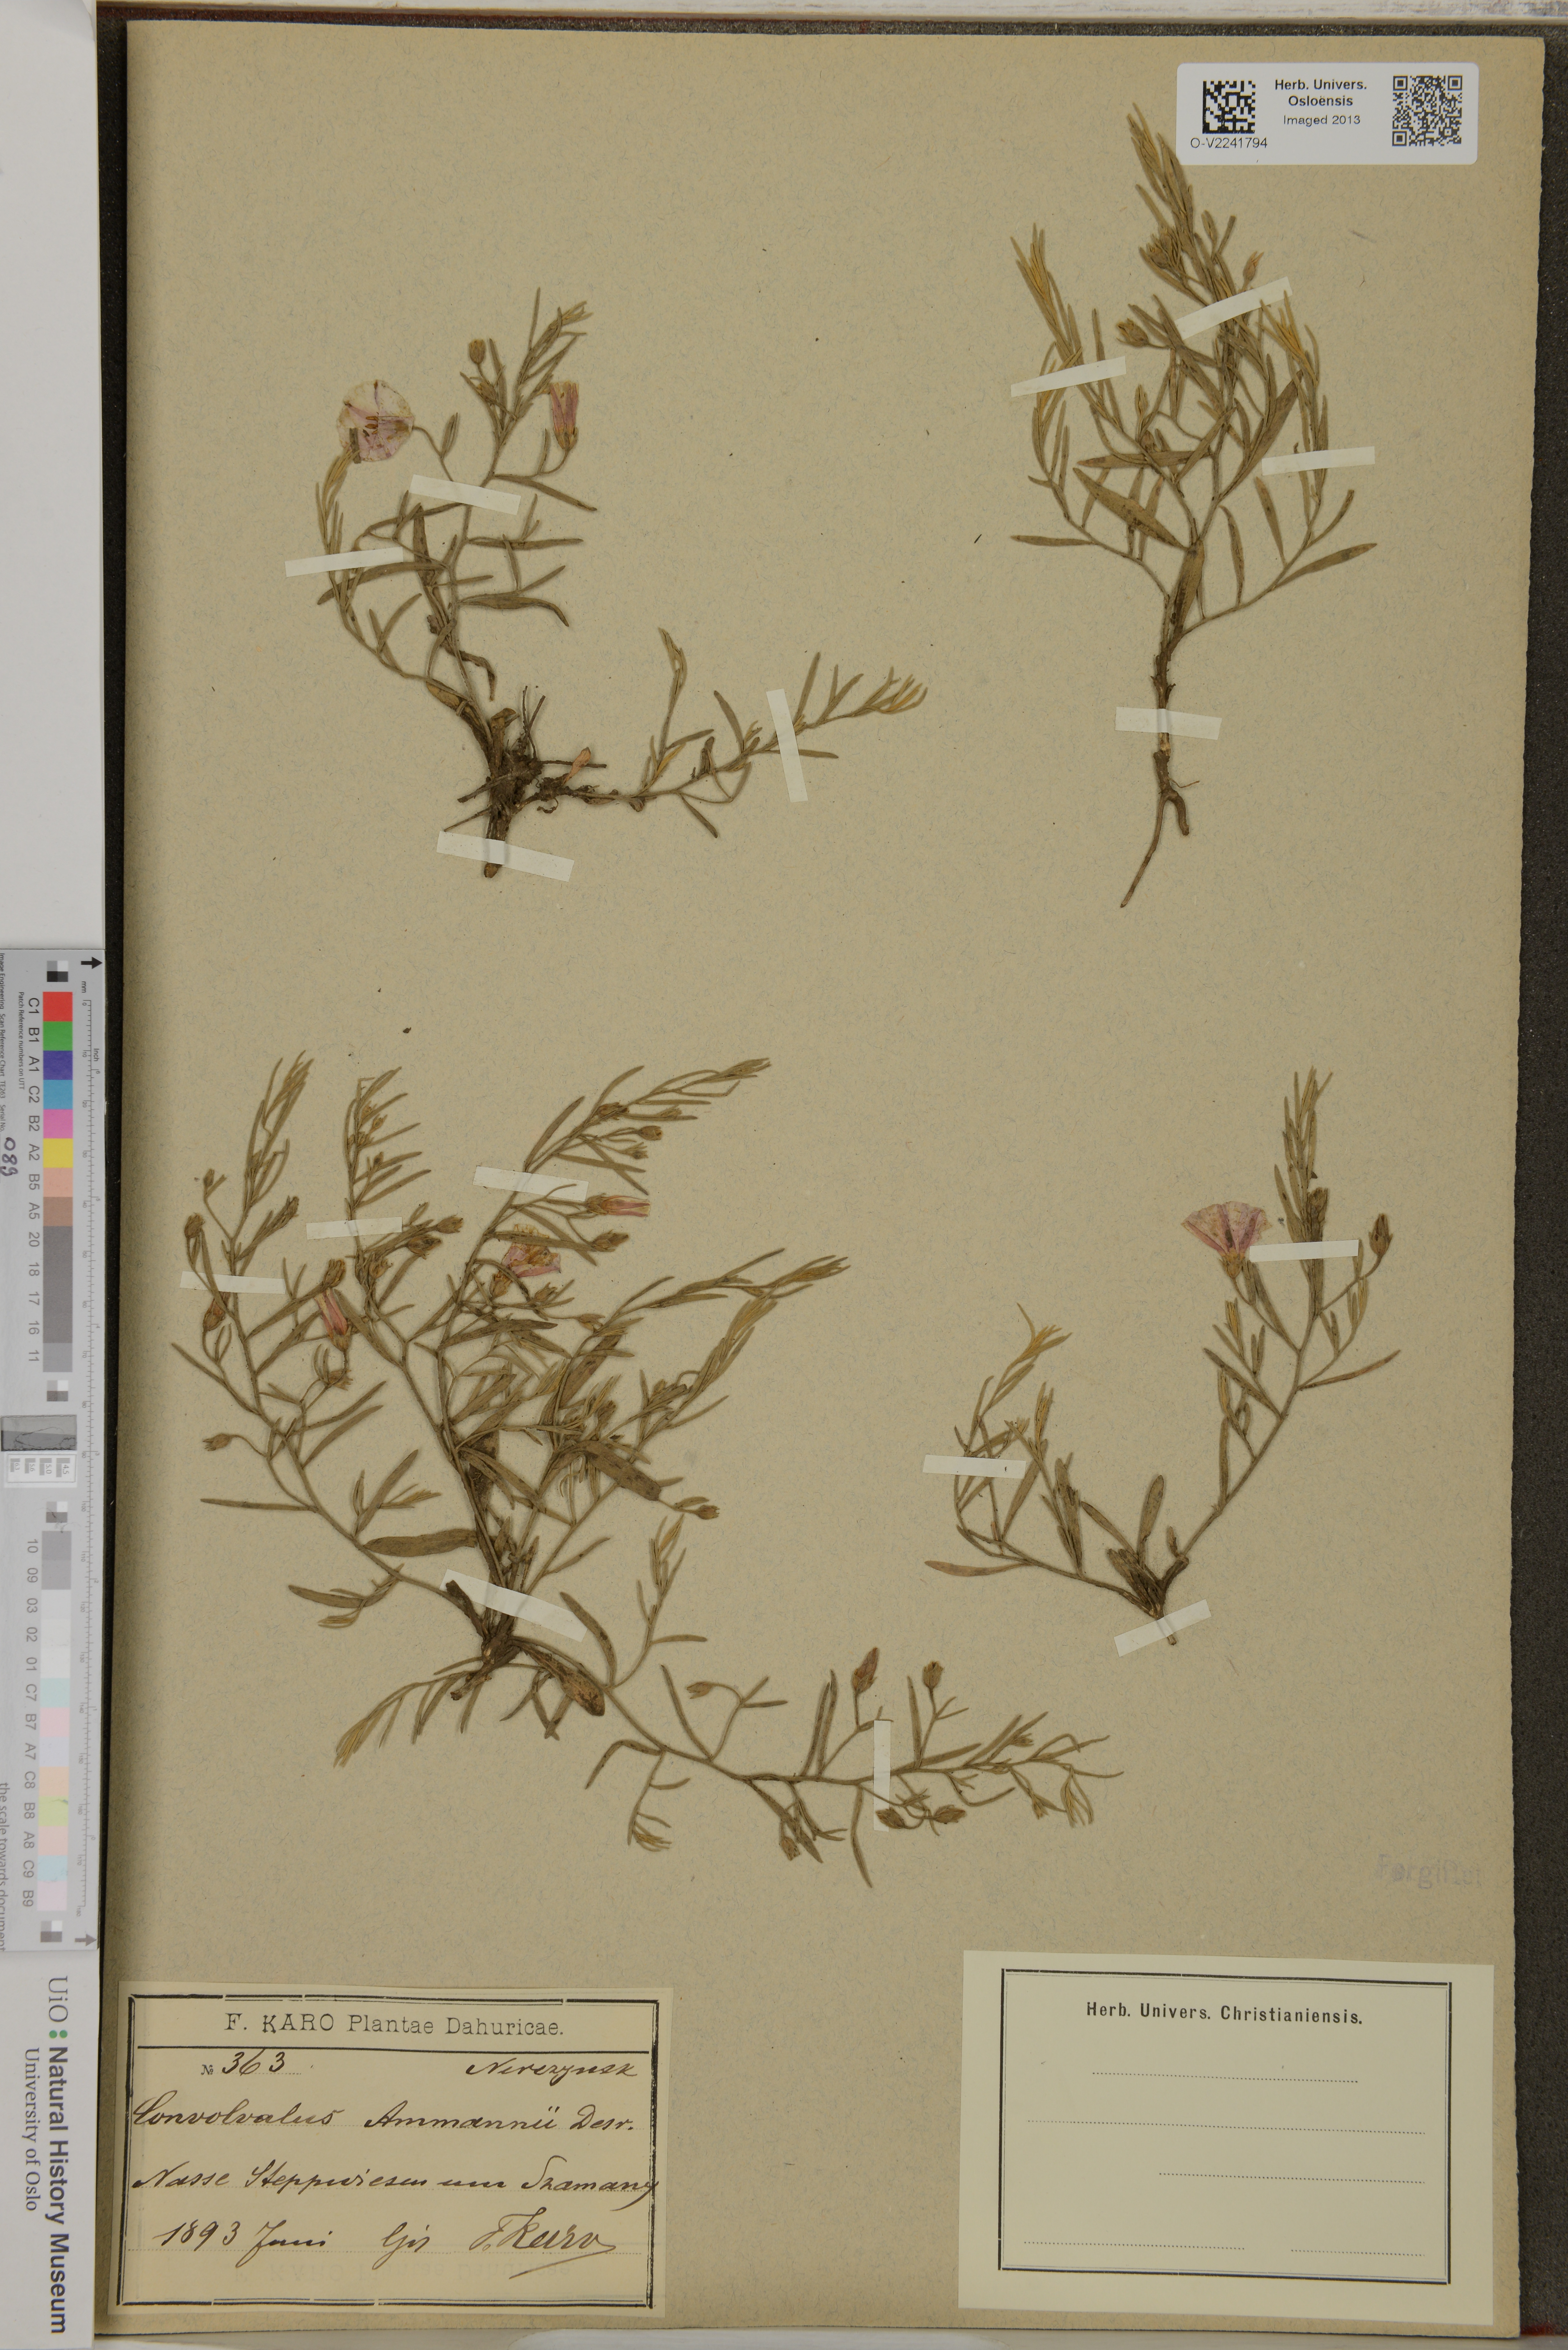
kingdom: Plantae
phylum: Tracheophyta
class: Magnoliopsida
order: Solanales
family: Convolvulaceae
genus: Convolvulus
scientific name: Convolvulus ammannii
